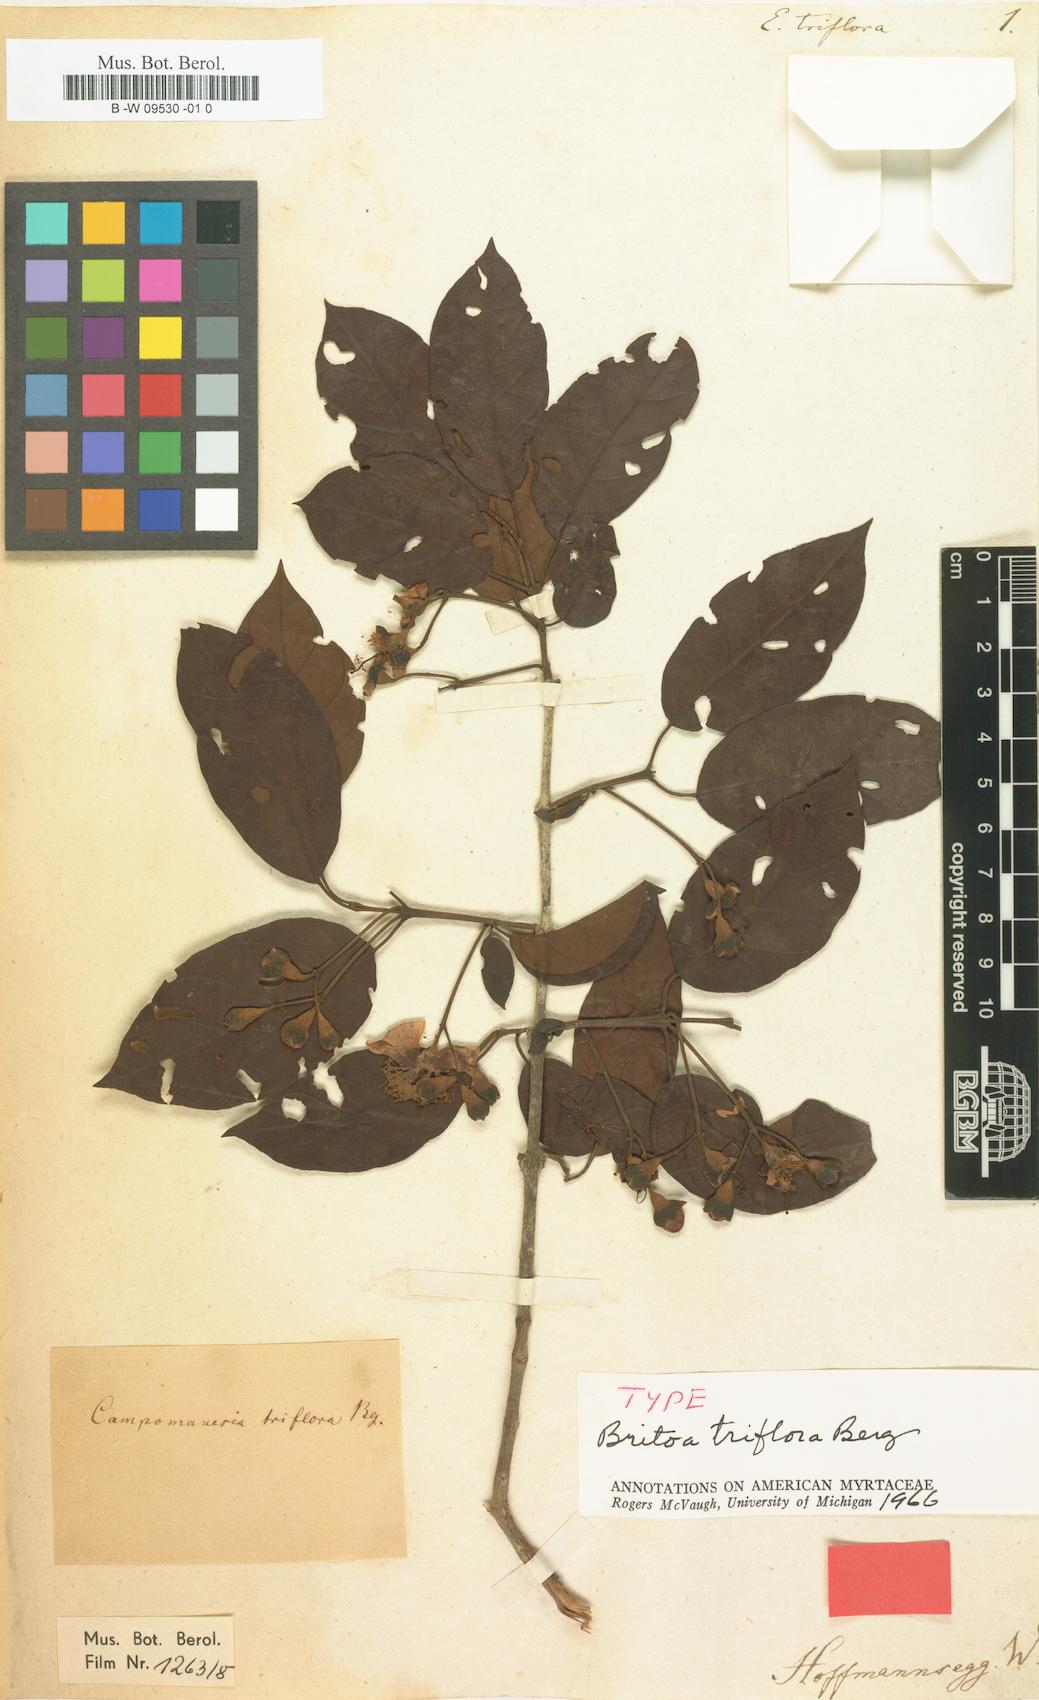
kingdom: Plantae
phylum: Tracheophyta
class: Magnoliopsida
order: Myrtales
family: Myrtaceae
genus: Eugenia
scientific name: Eugenia triflora
